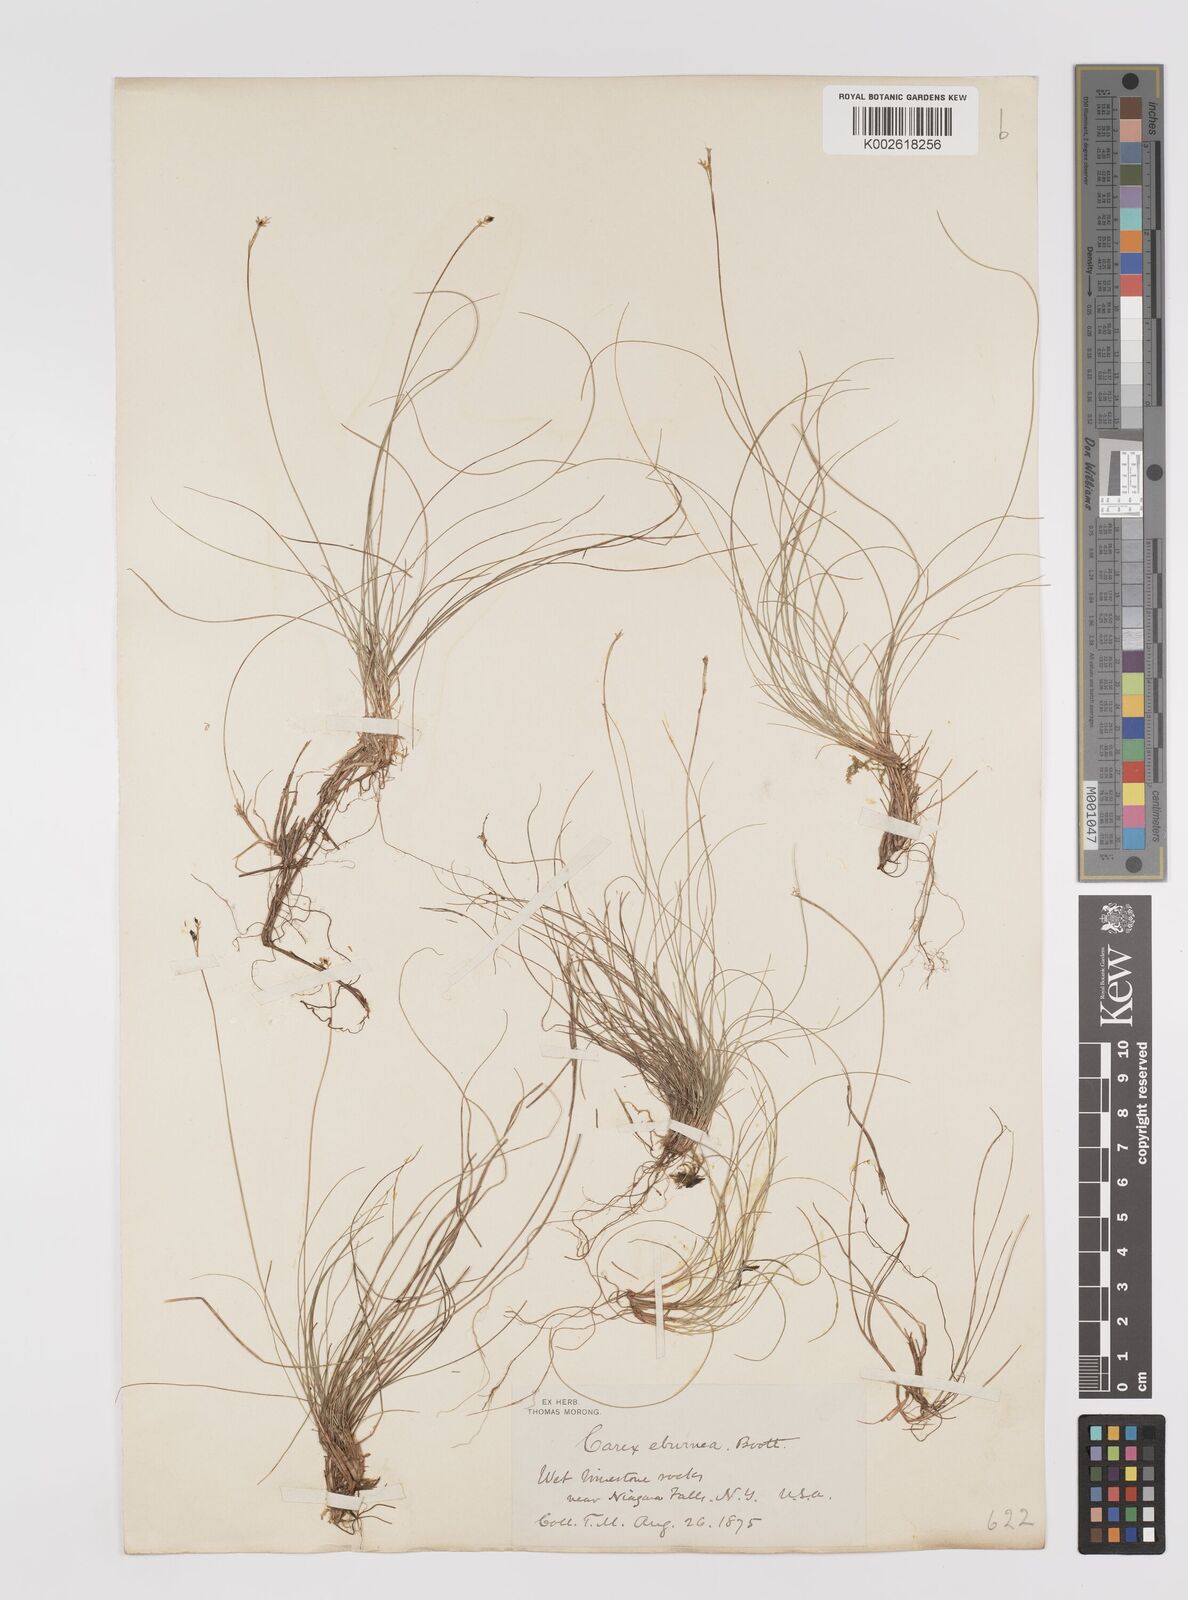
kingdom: Plantae
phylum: Tracheophyta
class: Liliopsida
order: Poales
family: Cyperaceae
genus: Carex
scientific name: Carex eburnea
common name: Bristle-leaved sedge
